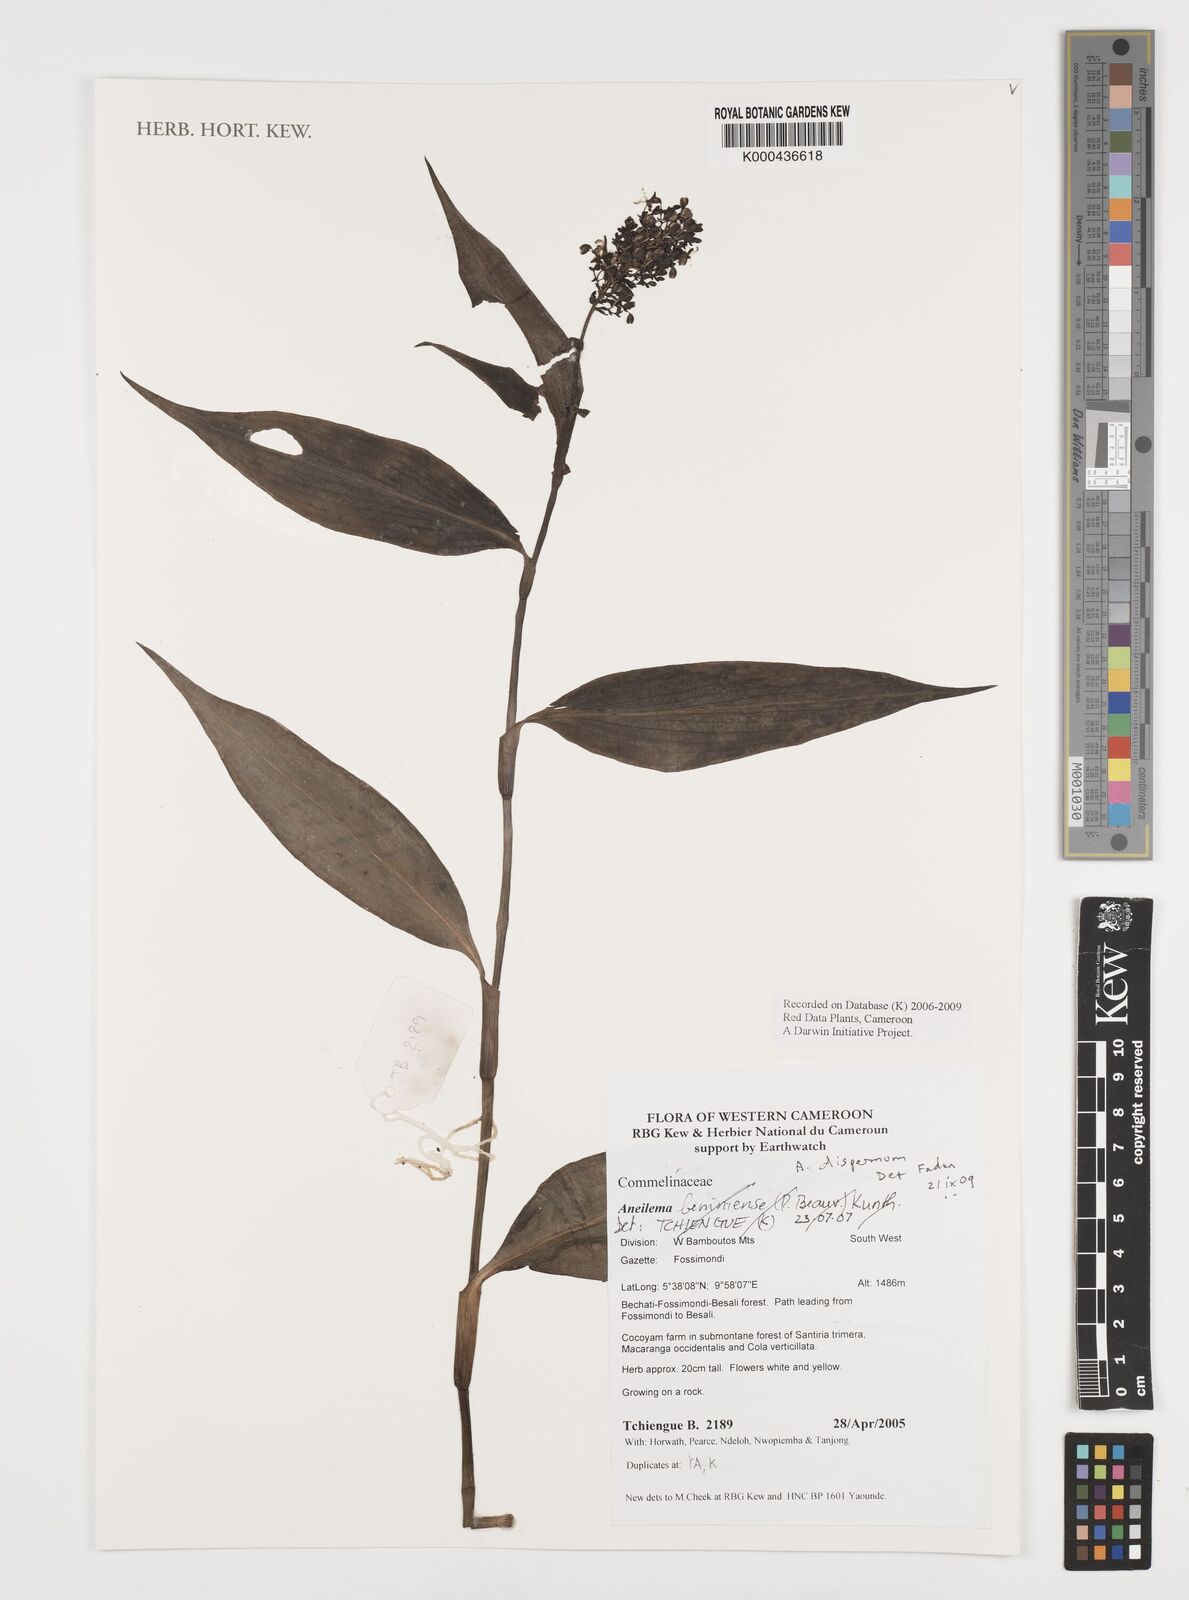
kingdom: Plantae
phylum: Tracheophyta
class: Liliopsida
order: Commelinales
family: Commelinaceae
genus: Aneilema
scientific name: Aneilema dispermum
